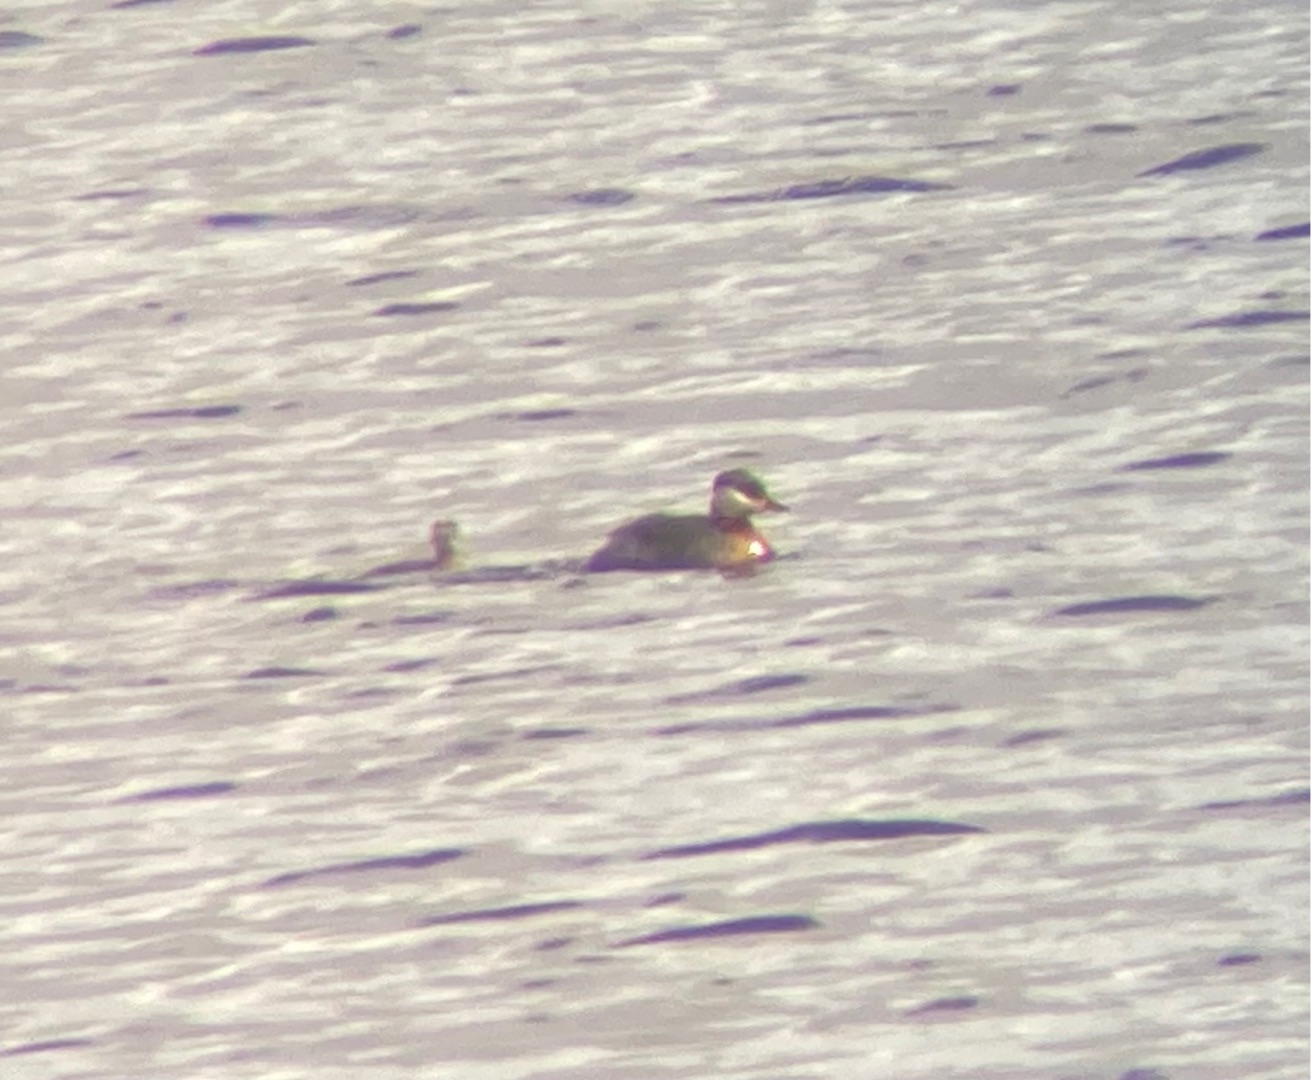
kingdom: Animalia
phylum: Chordata
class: Aves
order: Podicipediformes
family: Podicipedidae
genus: Podiceps
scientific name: Podiceps grisegena
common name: Gråstrubet lappedykker
